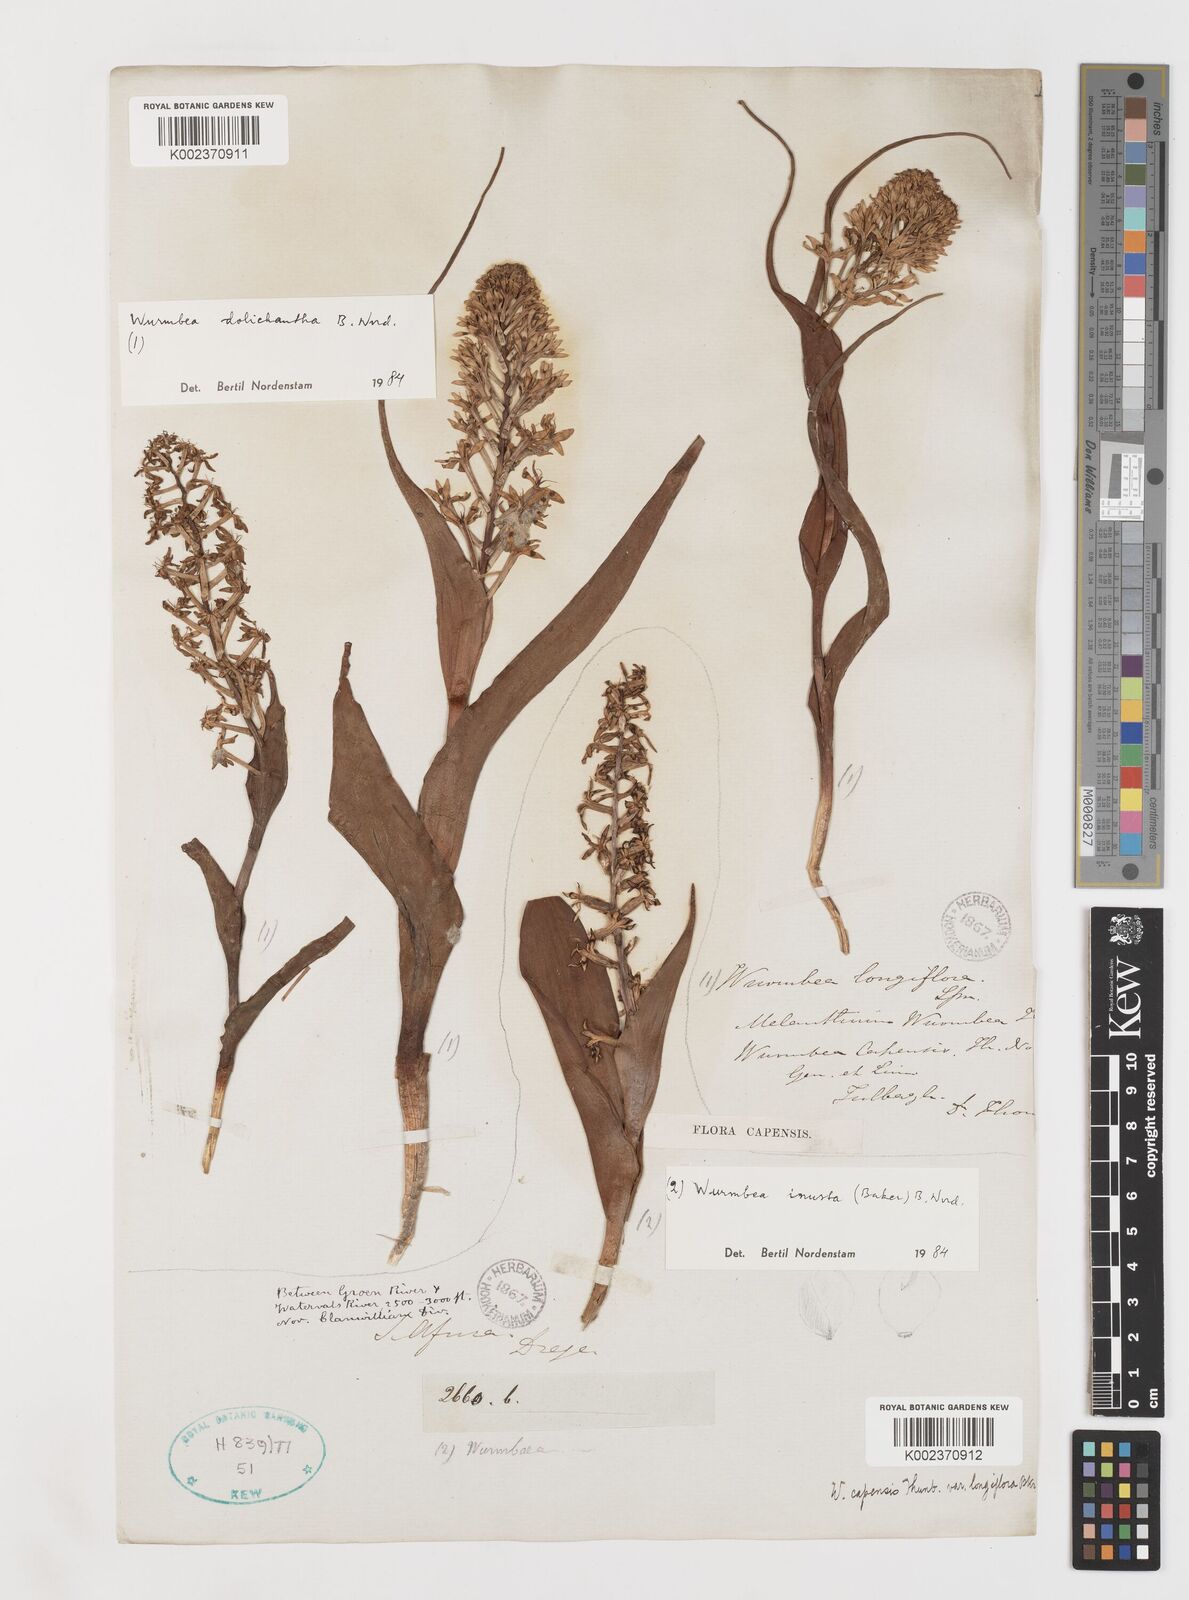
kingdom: Plantae
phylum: Tracheophyta
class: Liliopsida
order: Liliales
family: Colchicaceae
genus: Wurmbea
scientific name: Wurmbea dolichantha
